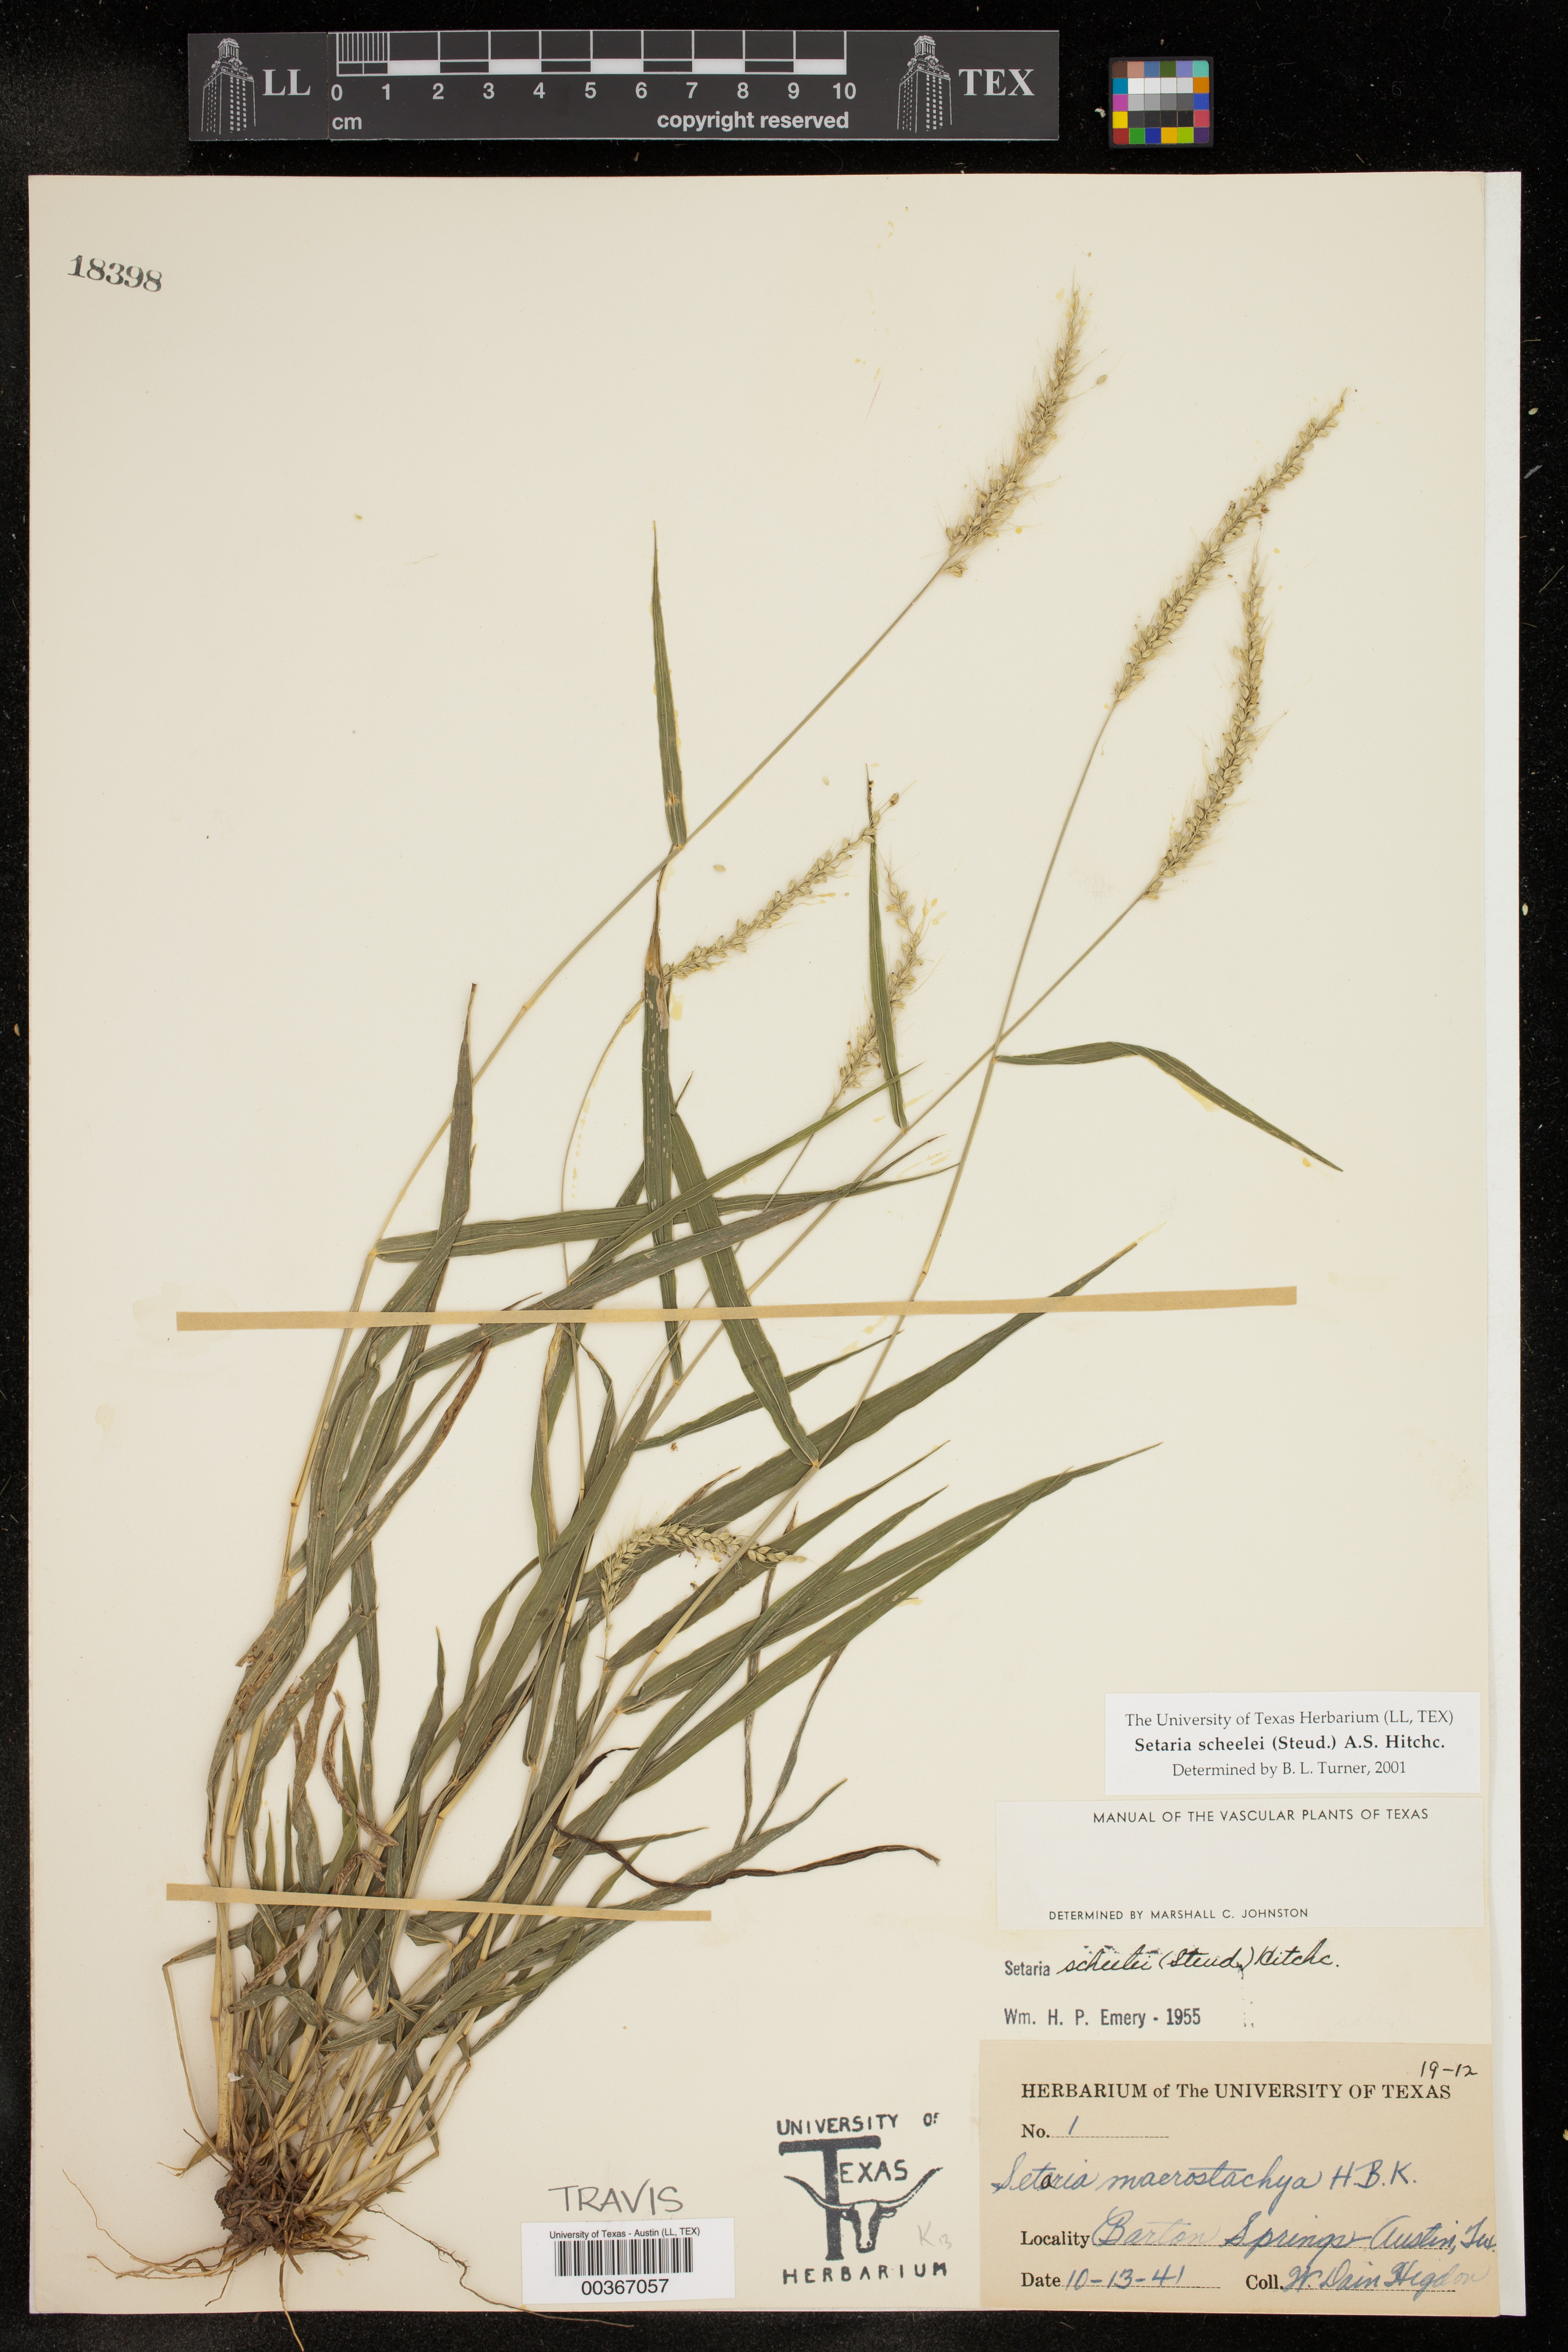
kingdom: Plantae
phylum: Tracheophyta
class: Liliopsida
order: Poales
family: Poaceae
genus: Setaria
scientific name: Setaria scheelei
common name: Southwestern bristle grass
